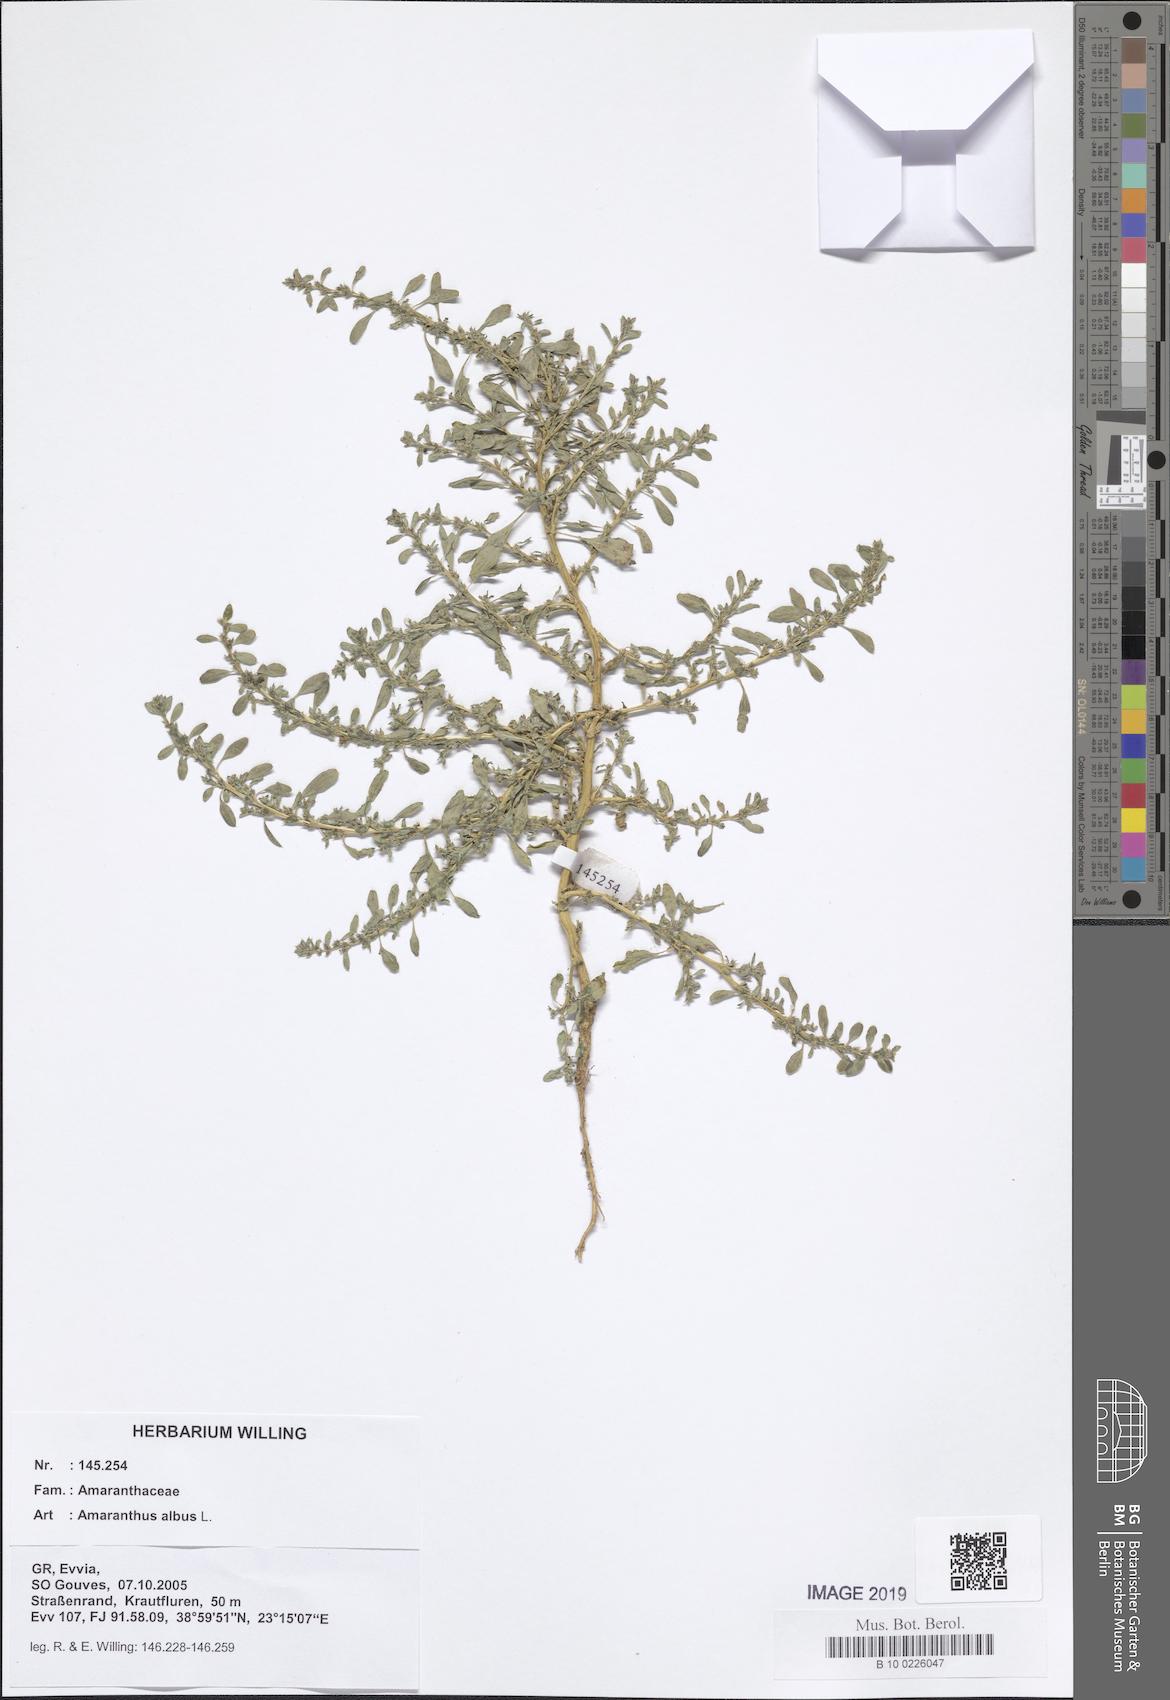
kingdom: Plantae
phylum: Tracheophyta
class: Magnoliopsida
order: Caryophyllales
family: Amaranthaceae
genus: Amaranthus
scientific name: Amaranthus albus
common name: White pigweed
